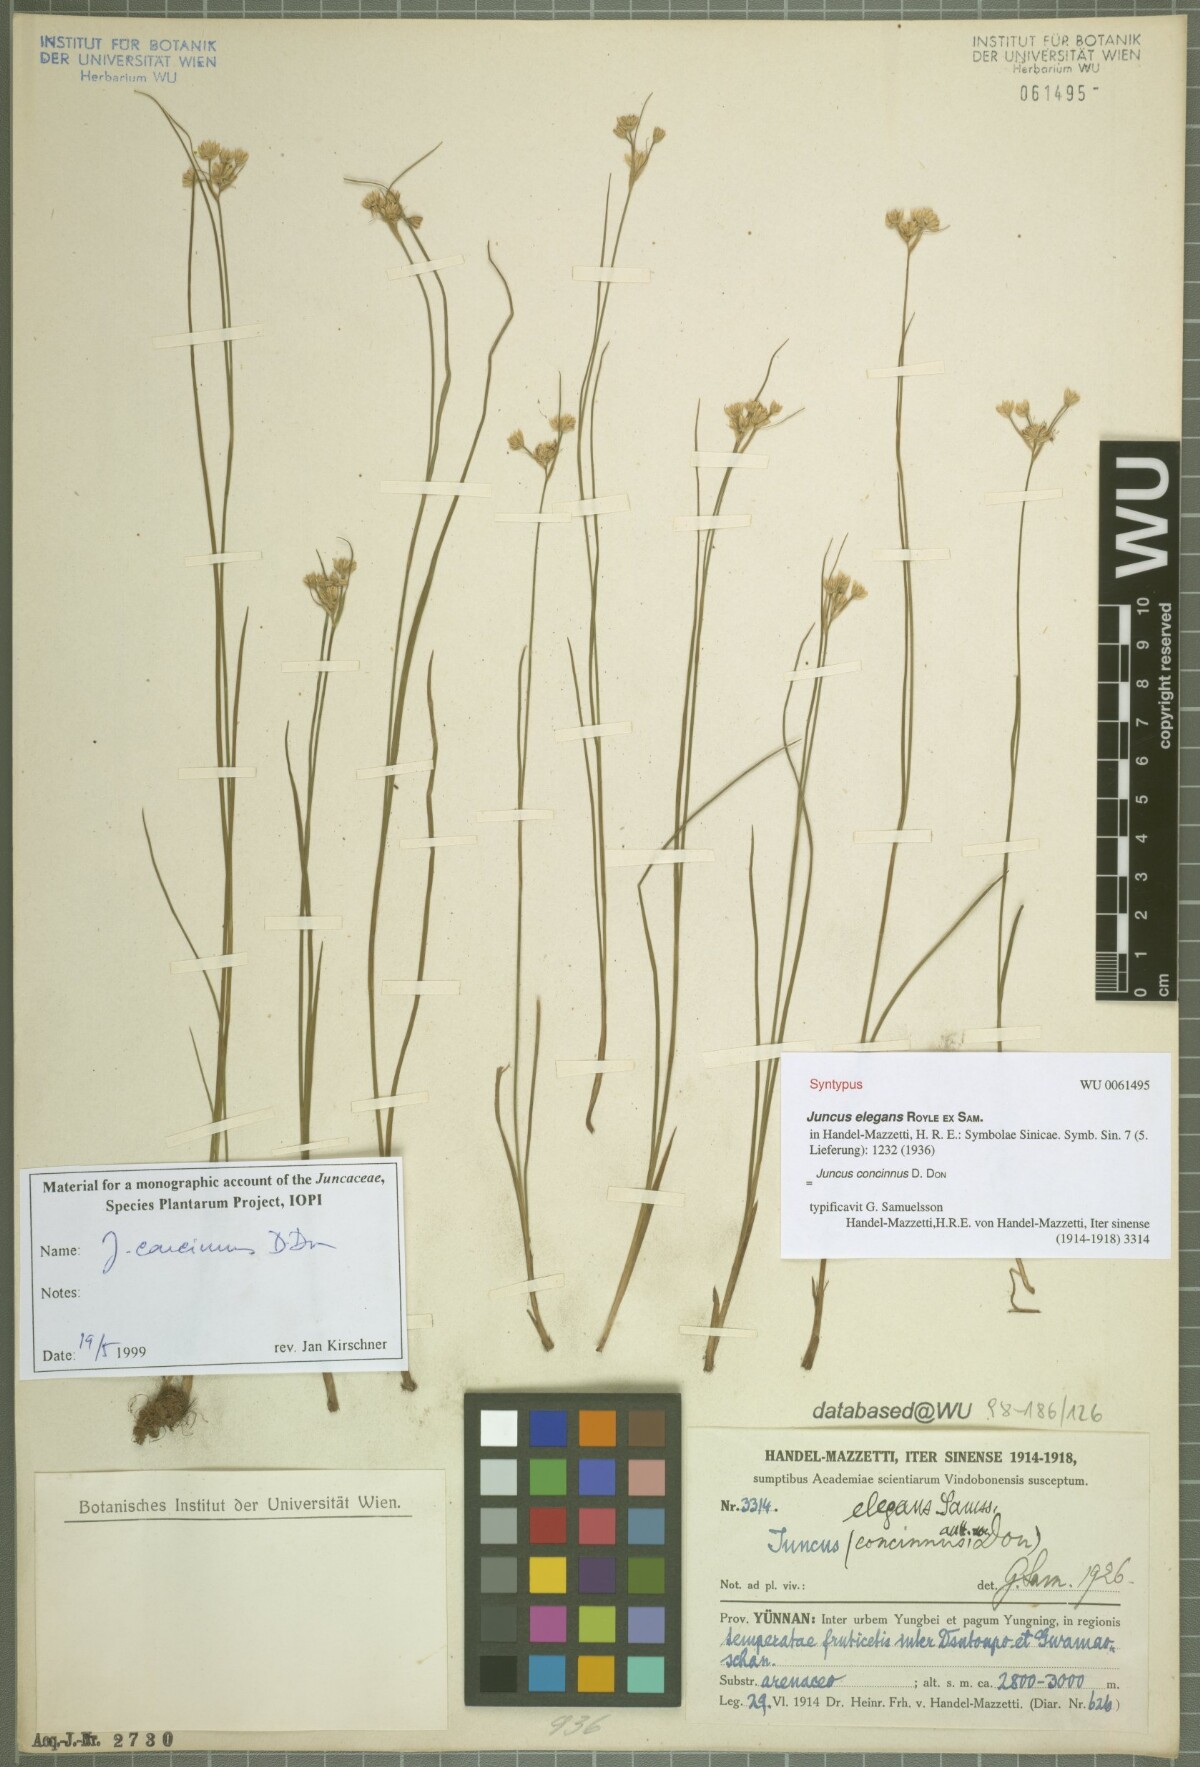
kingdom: Plantae
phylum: Tracheophyta
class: Liliopsida
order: Poales
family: Juncaceae
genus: Juncus
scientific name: Juncus concinnus
